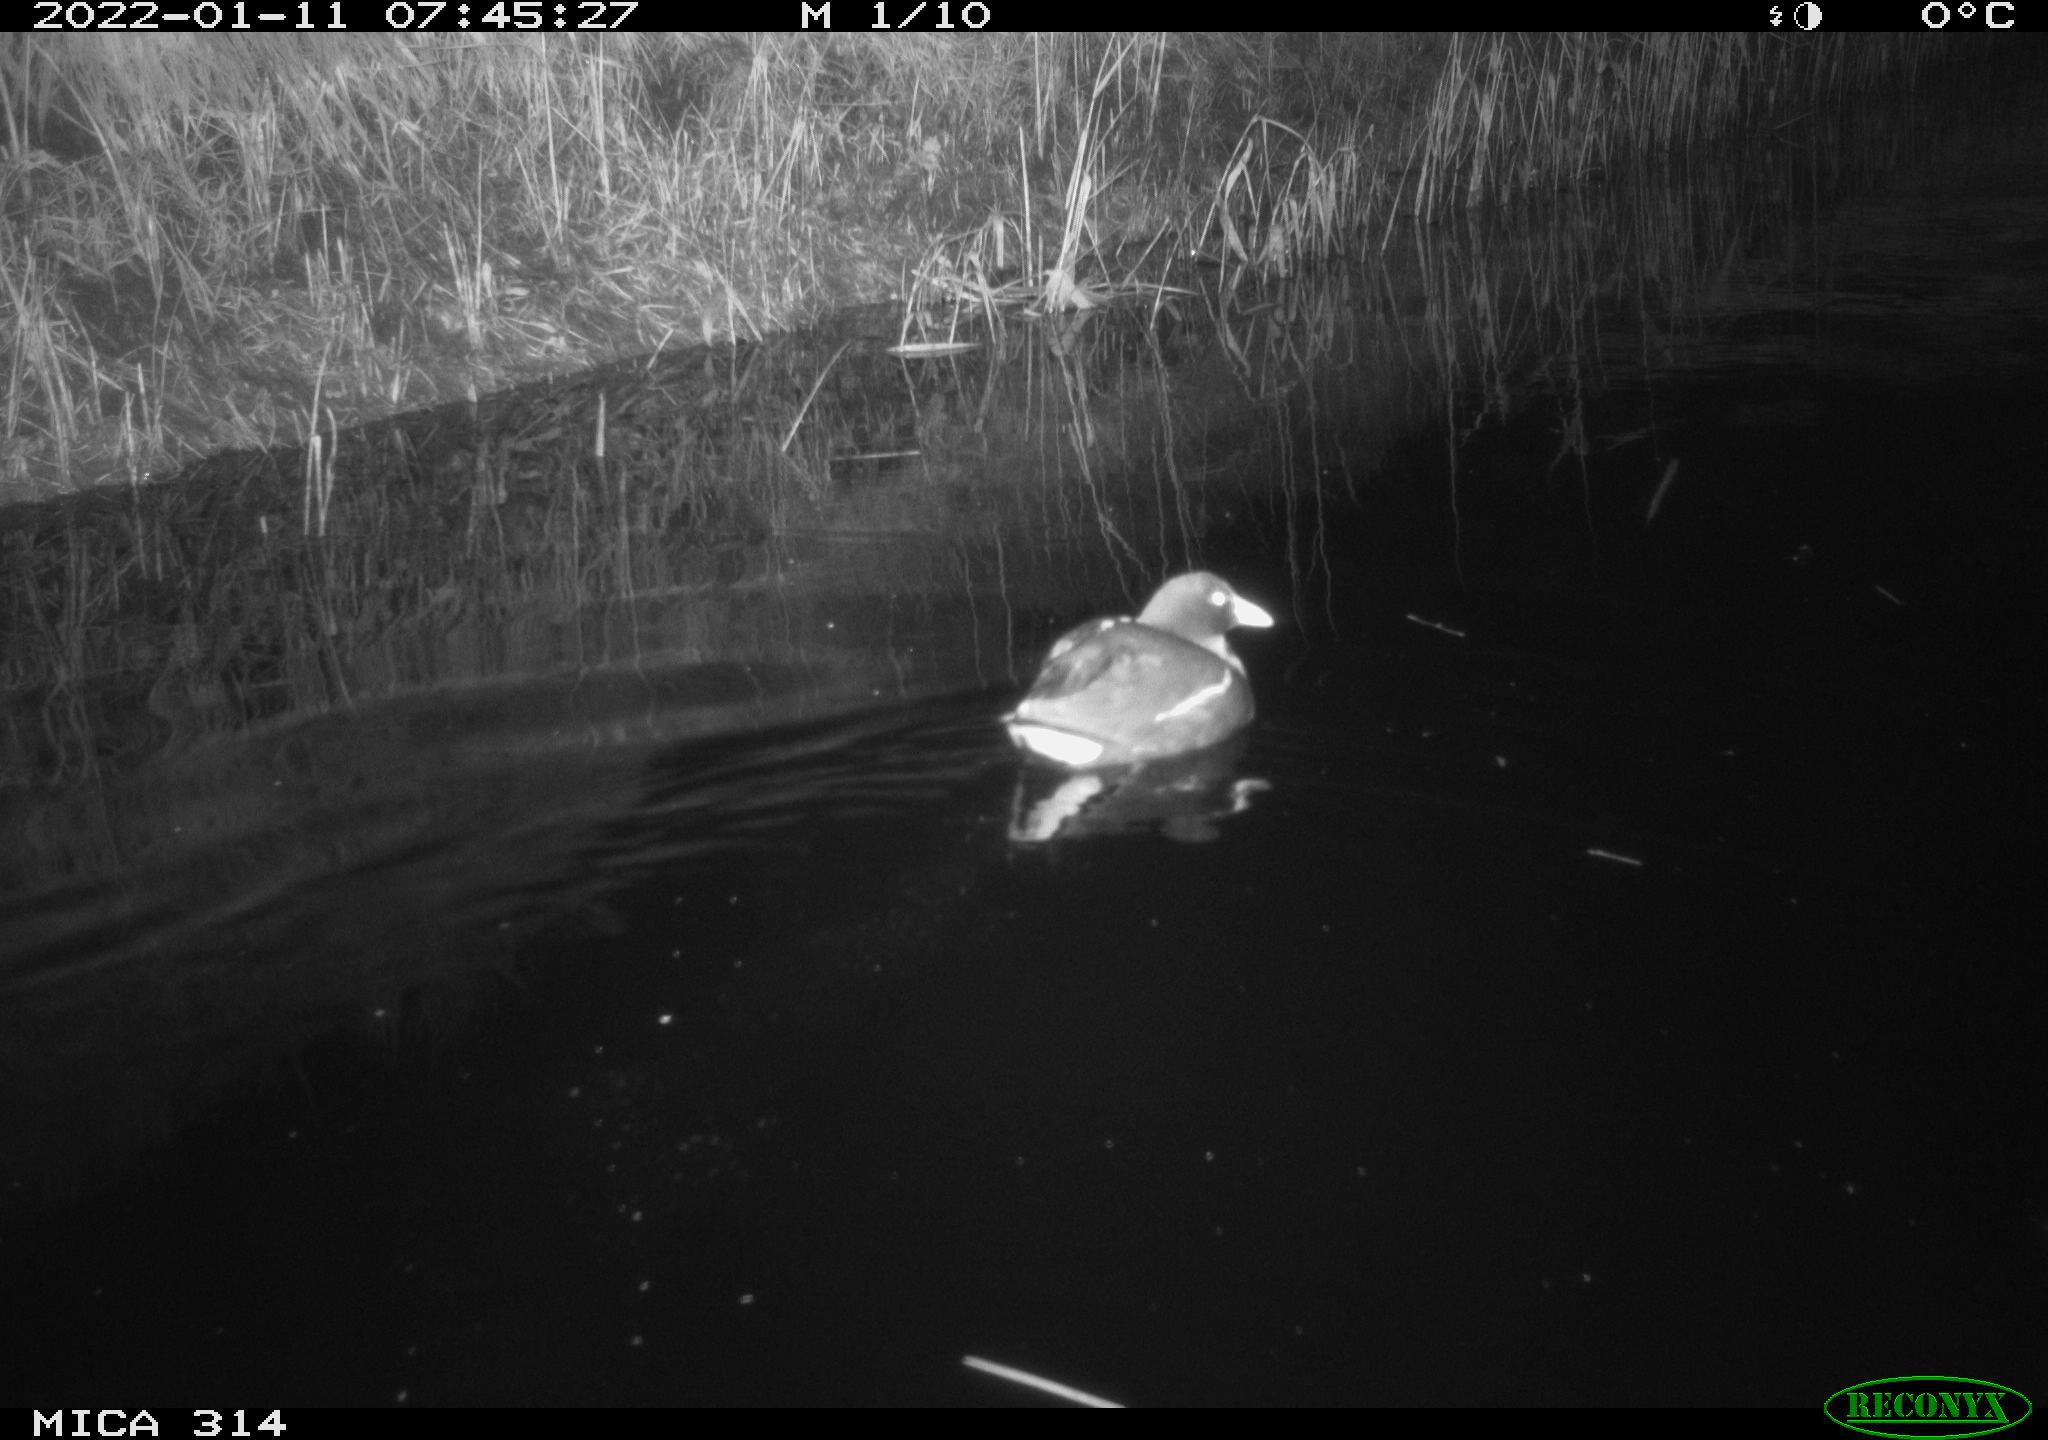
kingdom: Animalia
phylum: Chordata
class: Aves
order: Gruiformes
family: Rallidae
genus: Gallinula
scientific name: Gallinula chloropus
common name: Common moorhen
